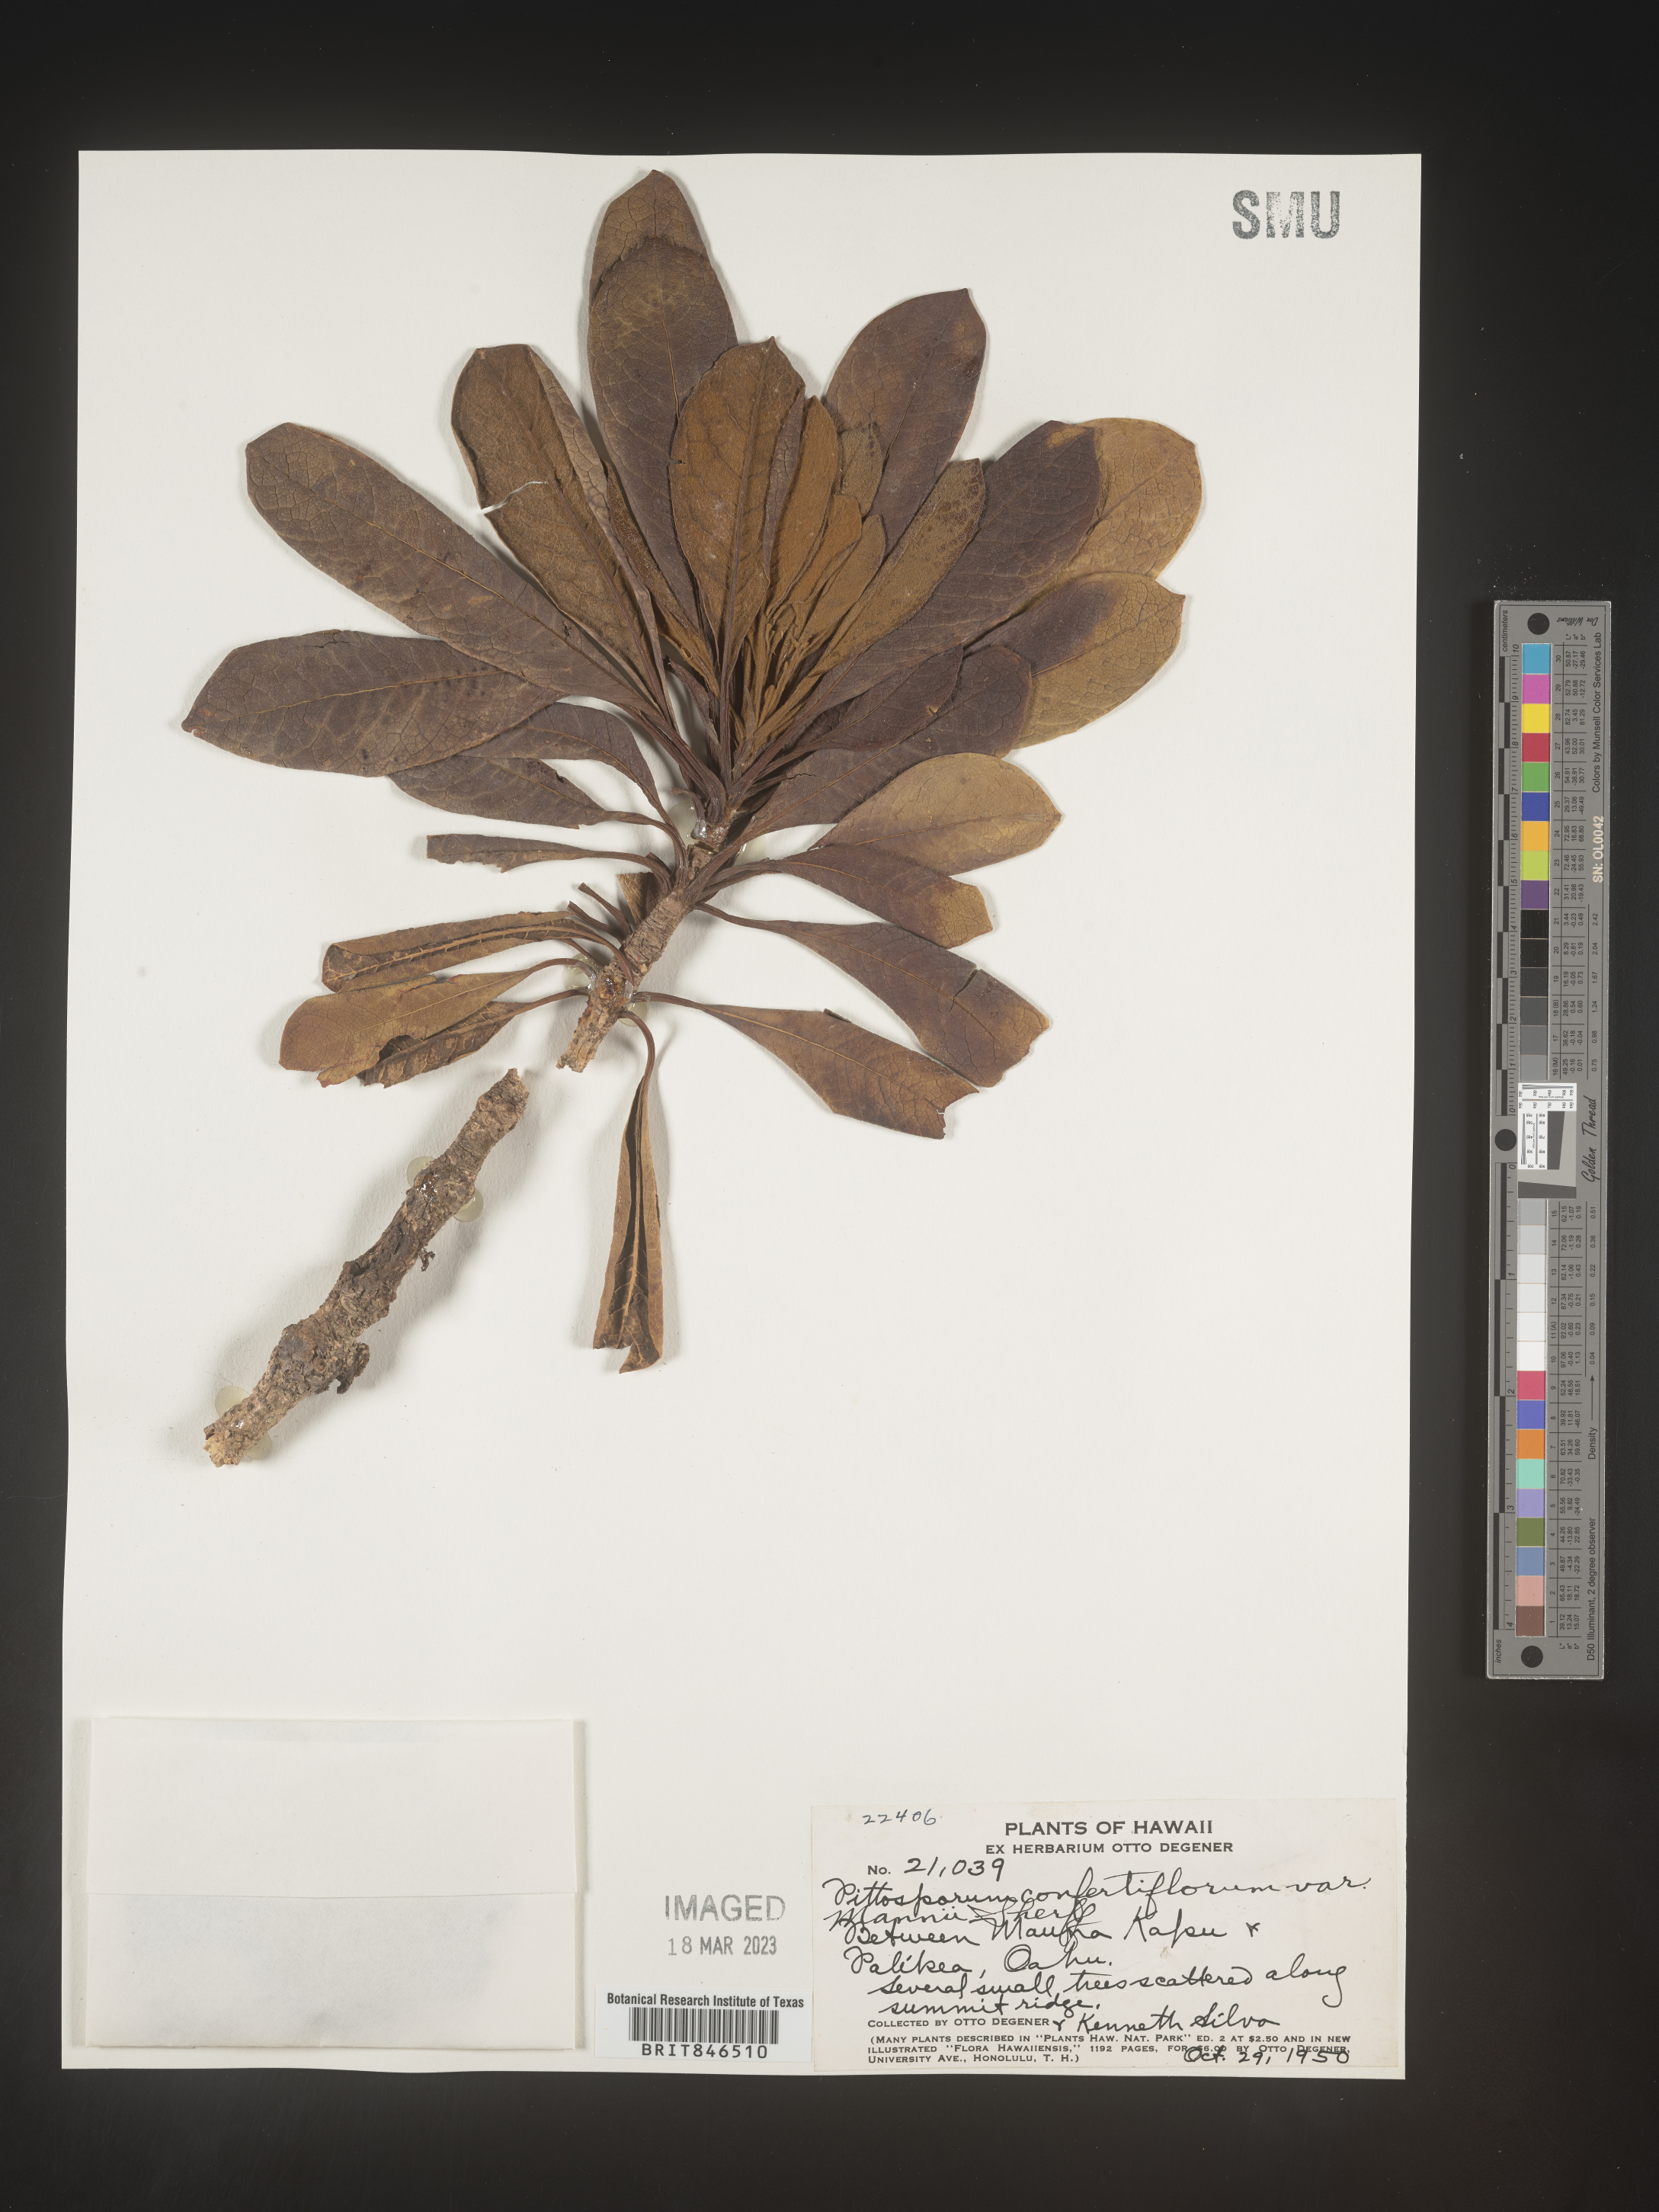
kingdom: Plantae
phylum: Tracheophyta
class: Magnoliopsida
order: Apiales
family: Pittosporaceae
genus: Pittosporum
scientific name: Pittosporum
